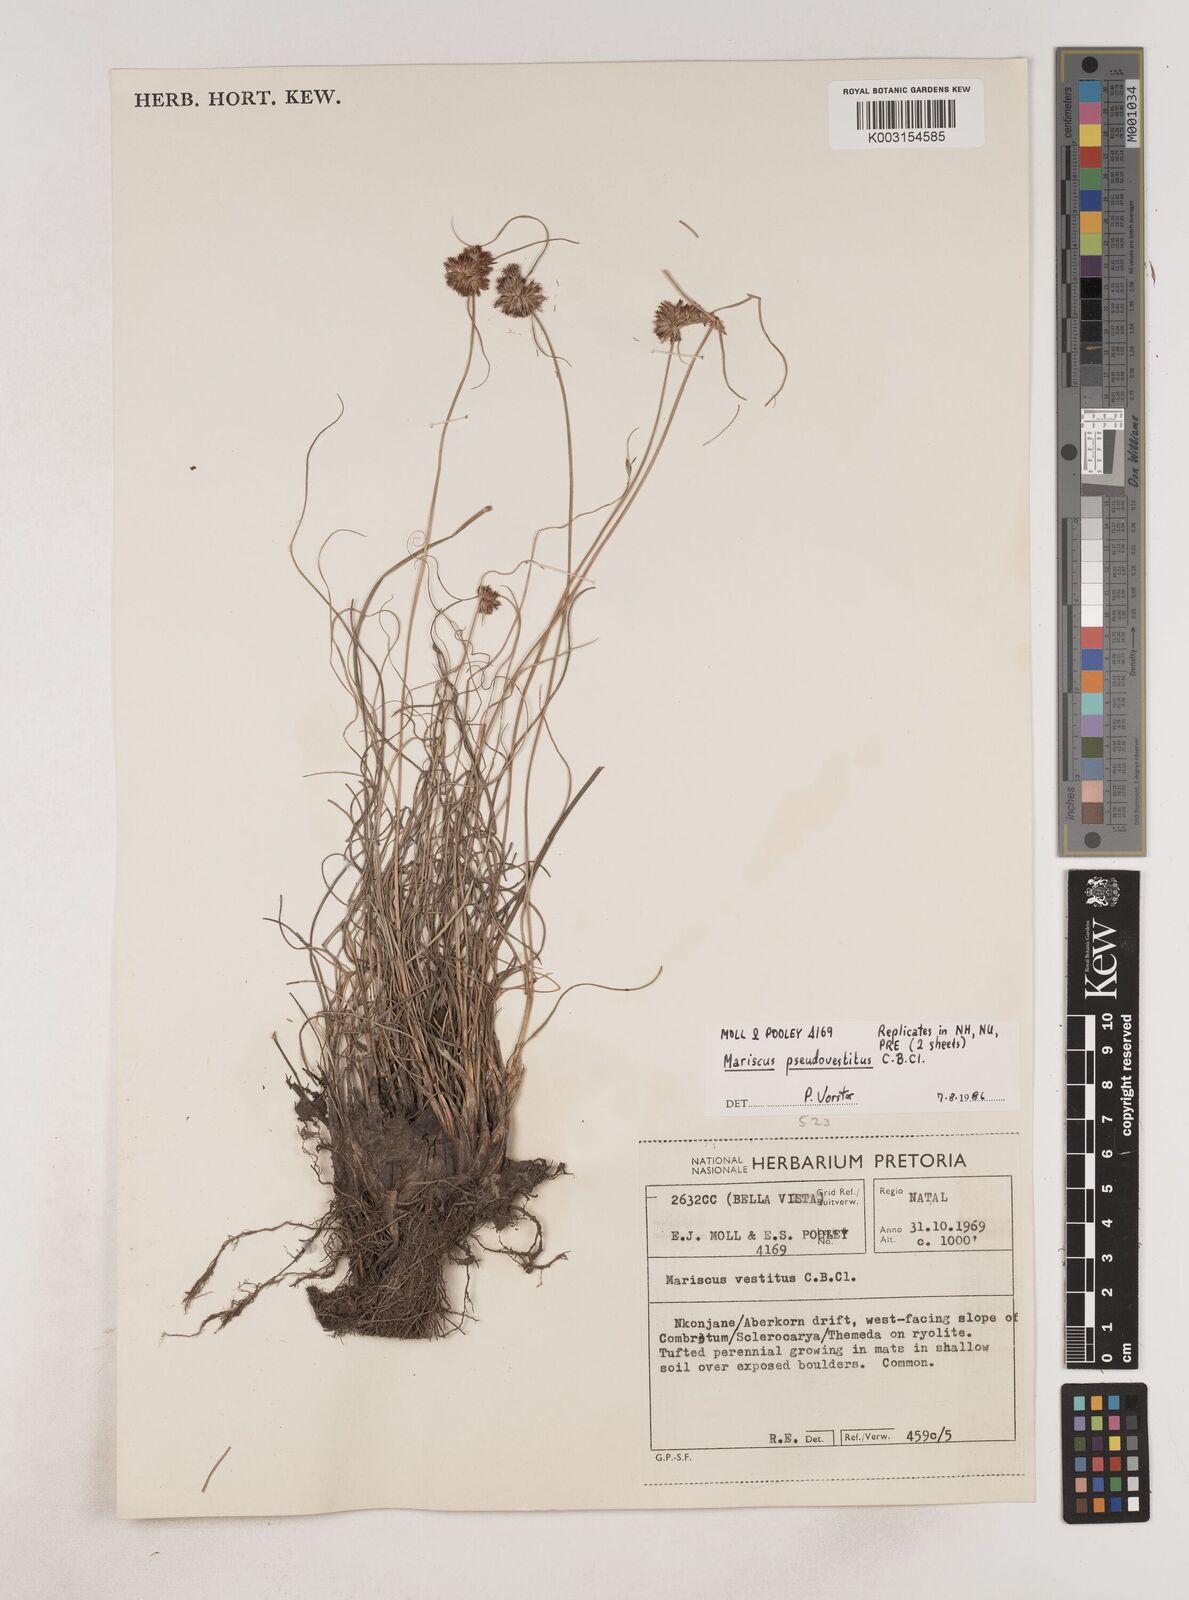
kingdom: Plantae
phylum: Tracheophyta
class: Liliopsida
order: Poales
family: Cyperaceae
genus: Cyperus
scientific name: Cyperus pseudovestitus
